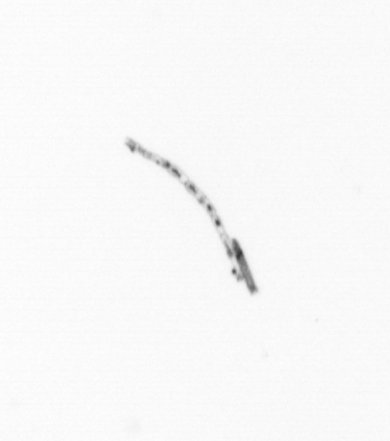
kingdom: Chromista
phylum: Ochrophyta
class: Bacillariophyceae
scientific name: Bacillariophyceae
